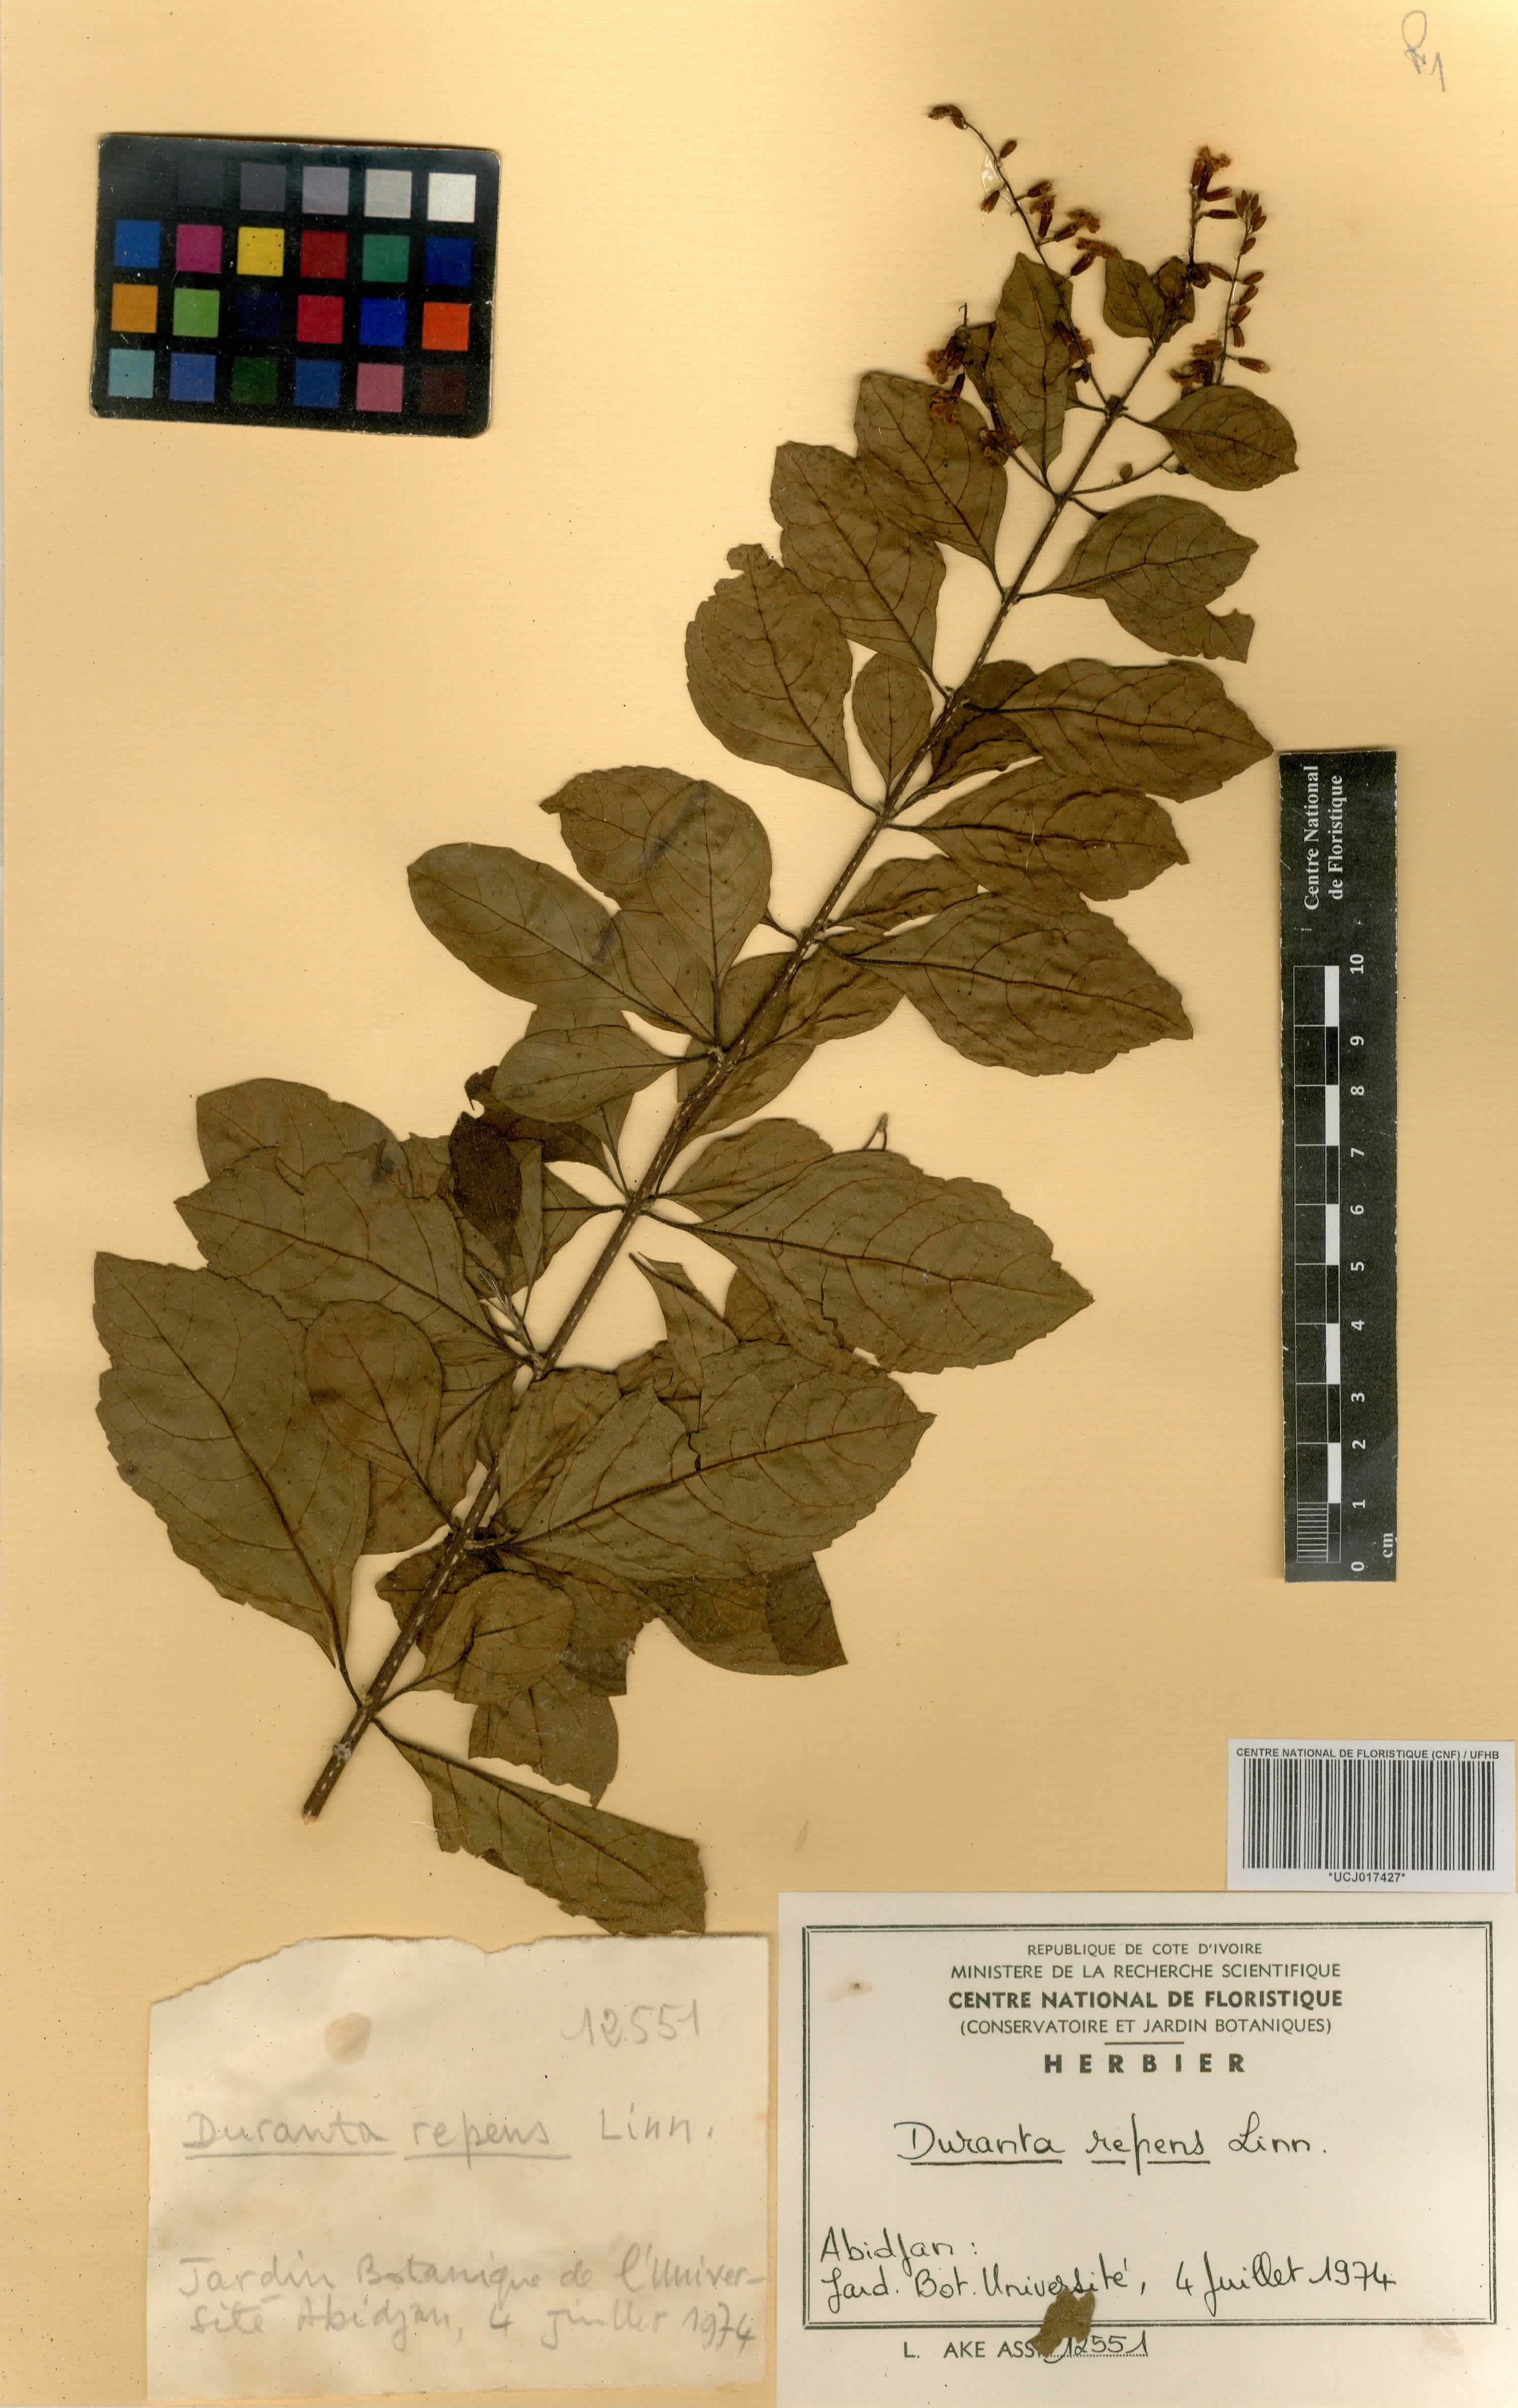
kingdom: Plantae
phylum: Tracheophyta
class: Magnoliopsida
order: Lamiales
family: Verbenaceae
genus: Duranta
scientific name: Duranta erecta
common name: Golden dewdrops
